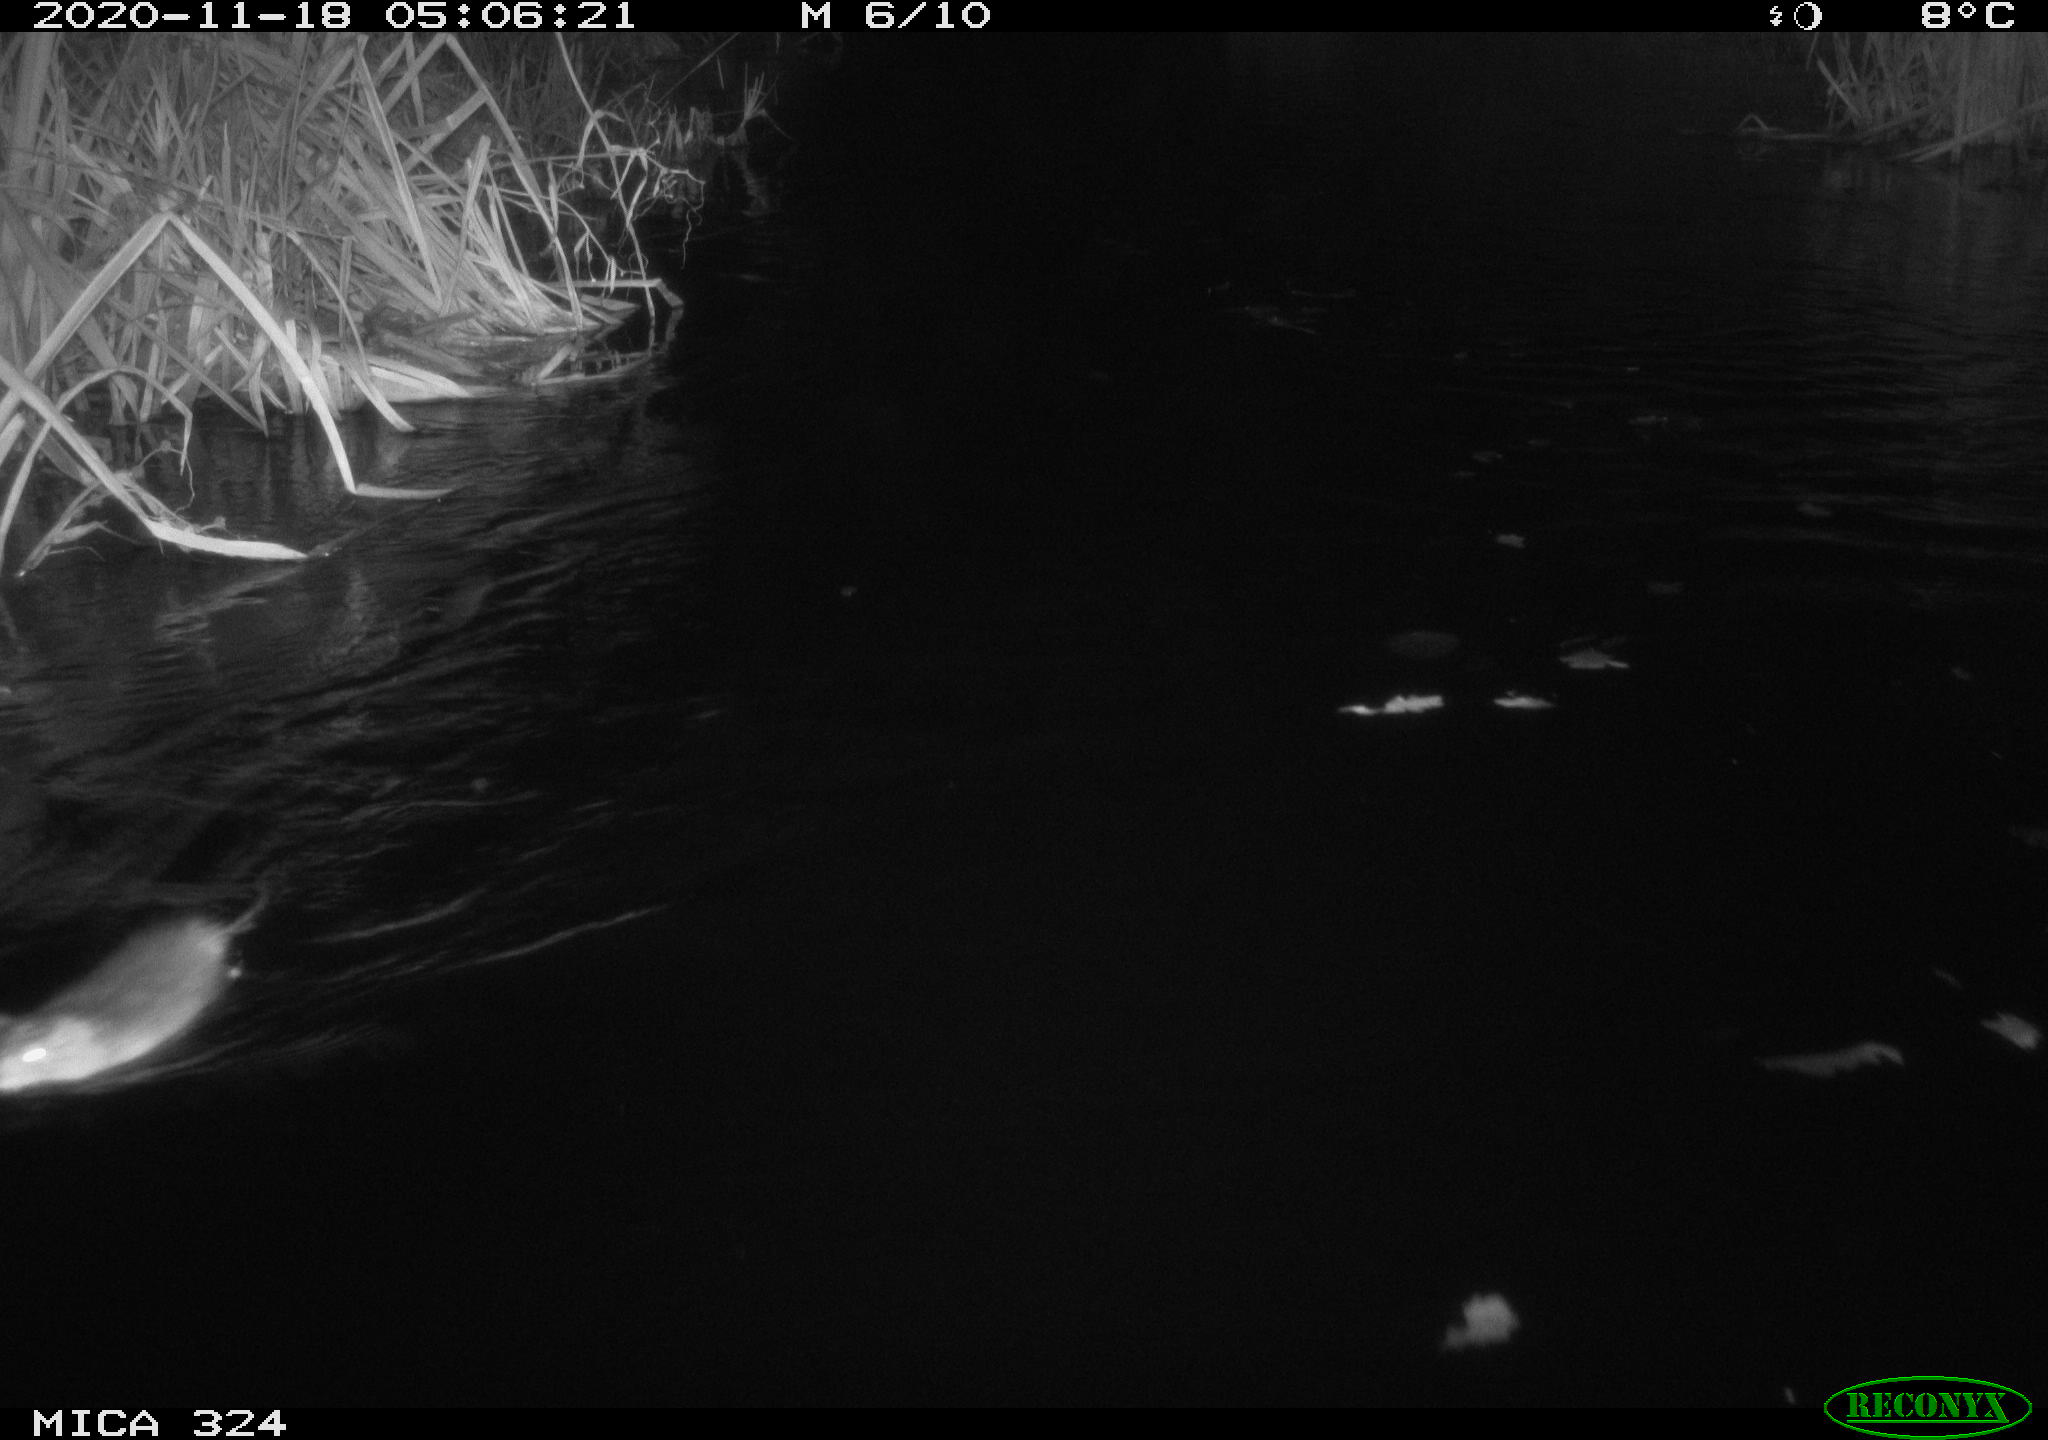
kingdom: Animalia
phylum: Chordata
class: Mammalia
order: Rodentia
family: Cricetidae
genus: Ondatra
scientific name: Ondatra zibethicus
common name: Muskrat
